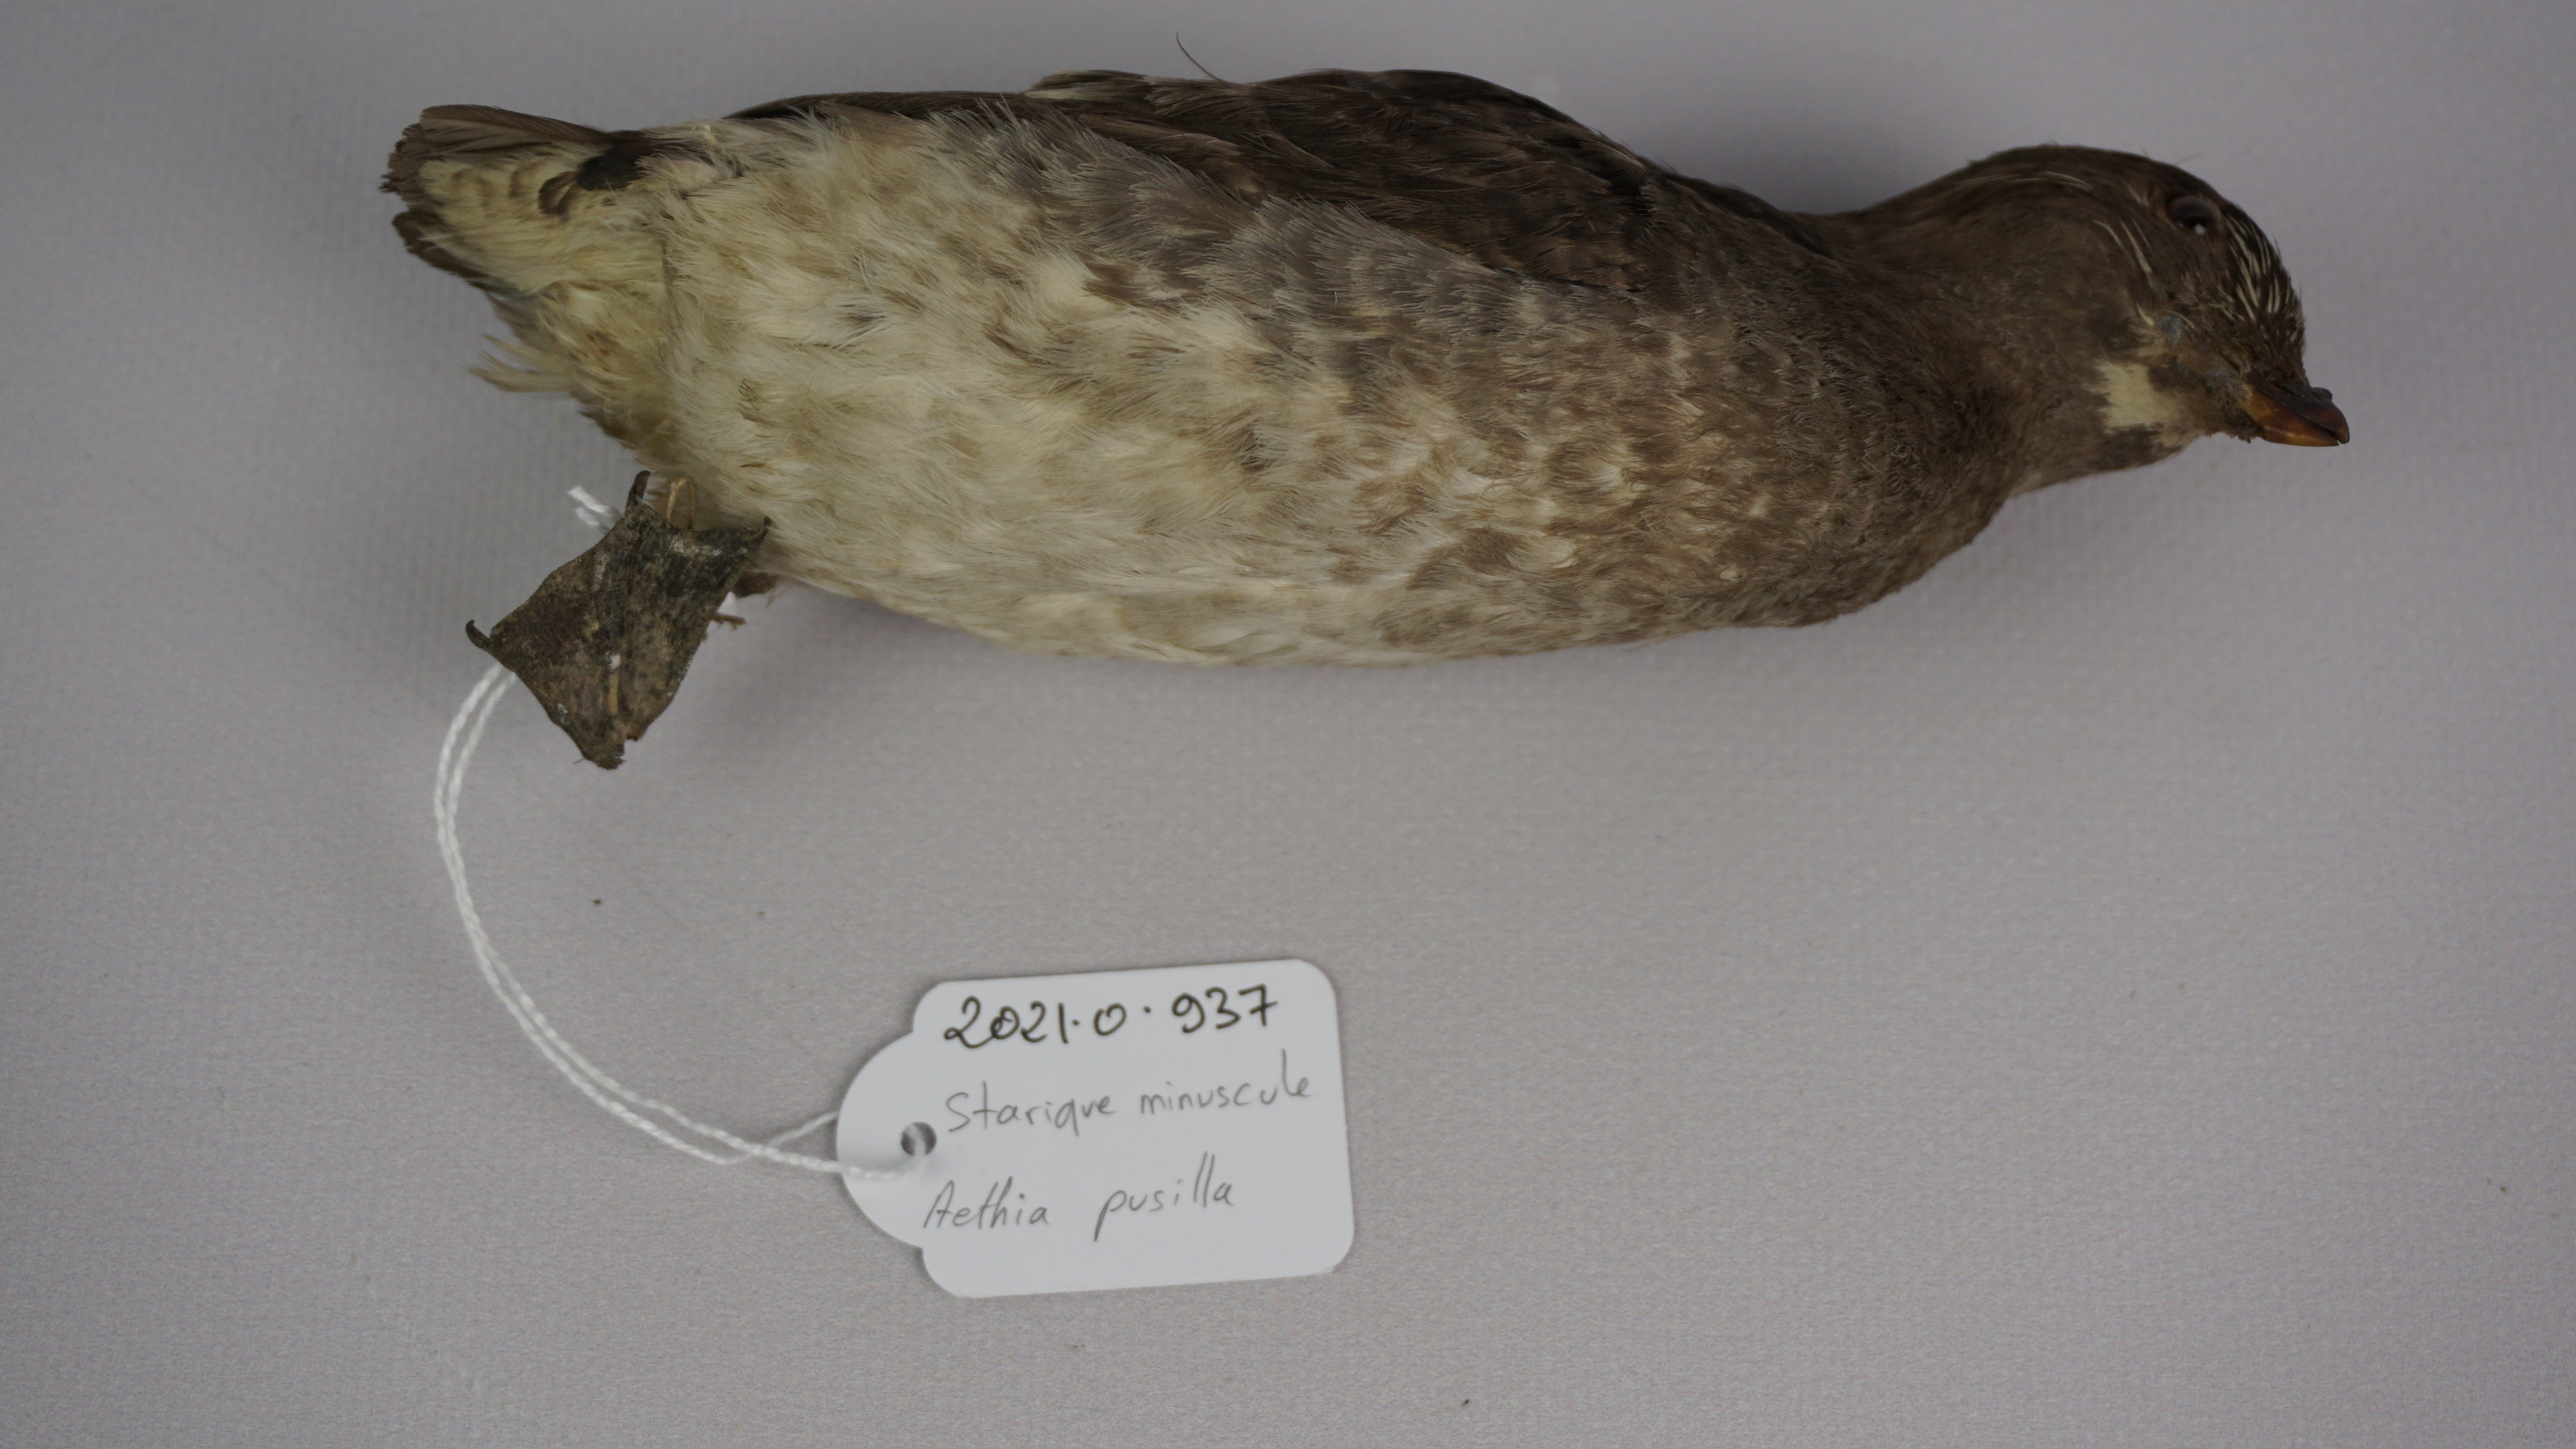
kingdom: Animalia
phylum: Chordata
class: Aves
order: Charadriiformes
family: Alcidae
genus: Aethia
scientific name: Aethia pusilla
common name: Least auklet
